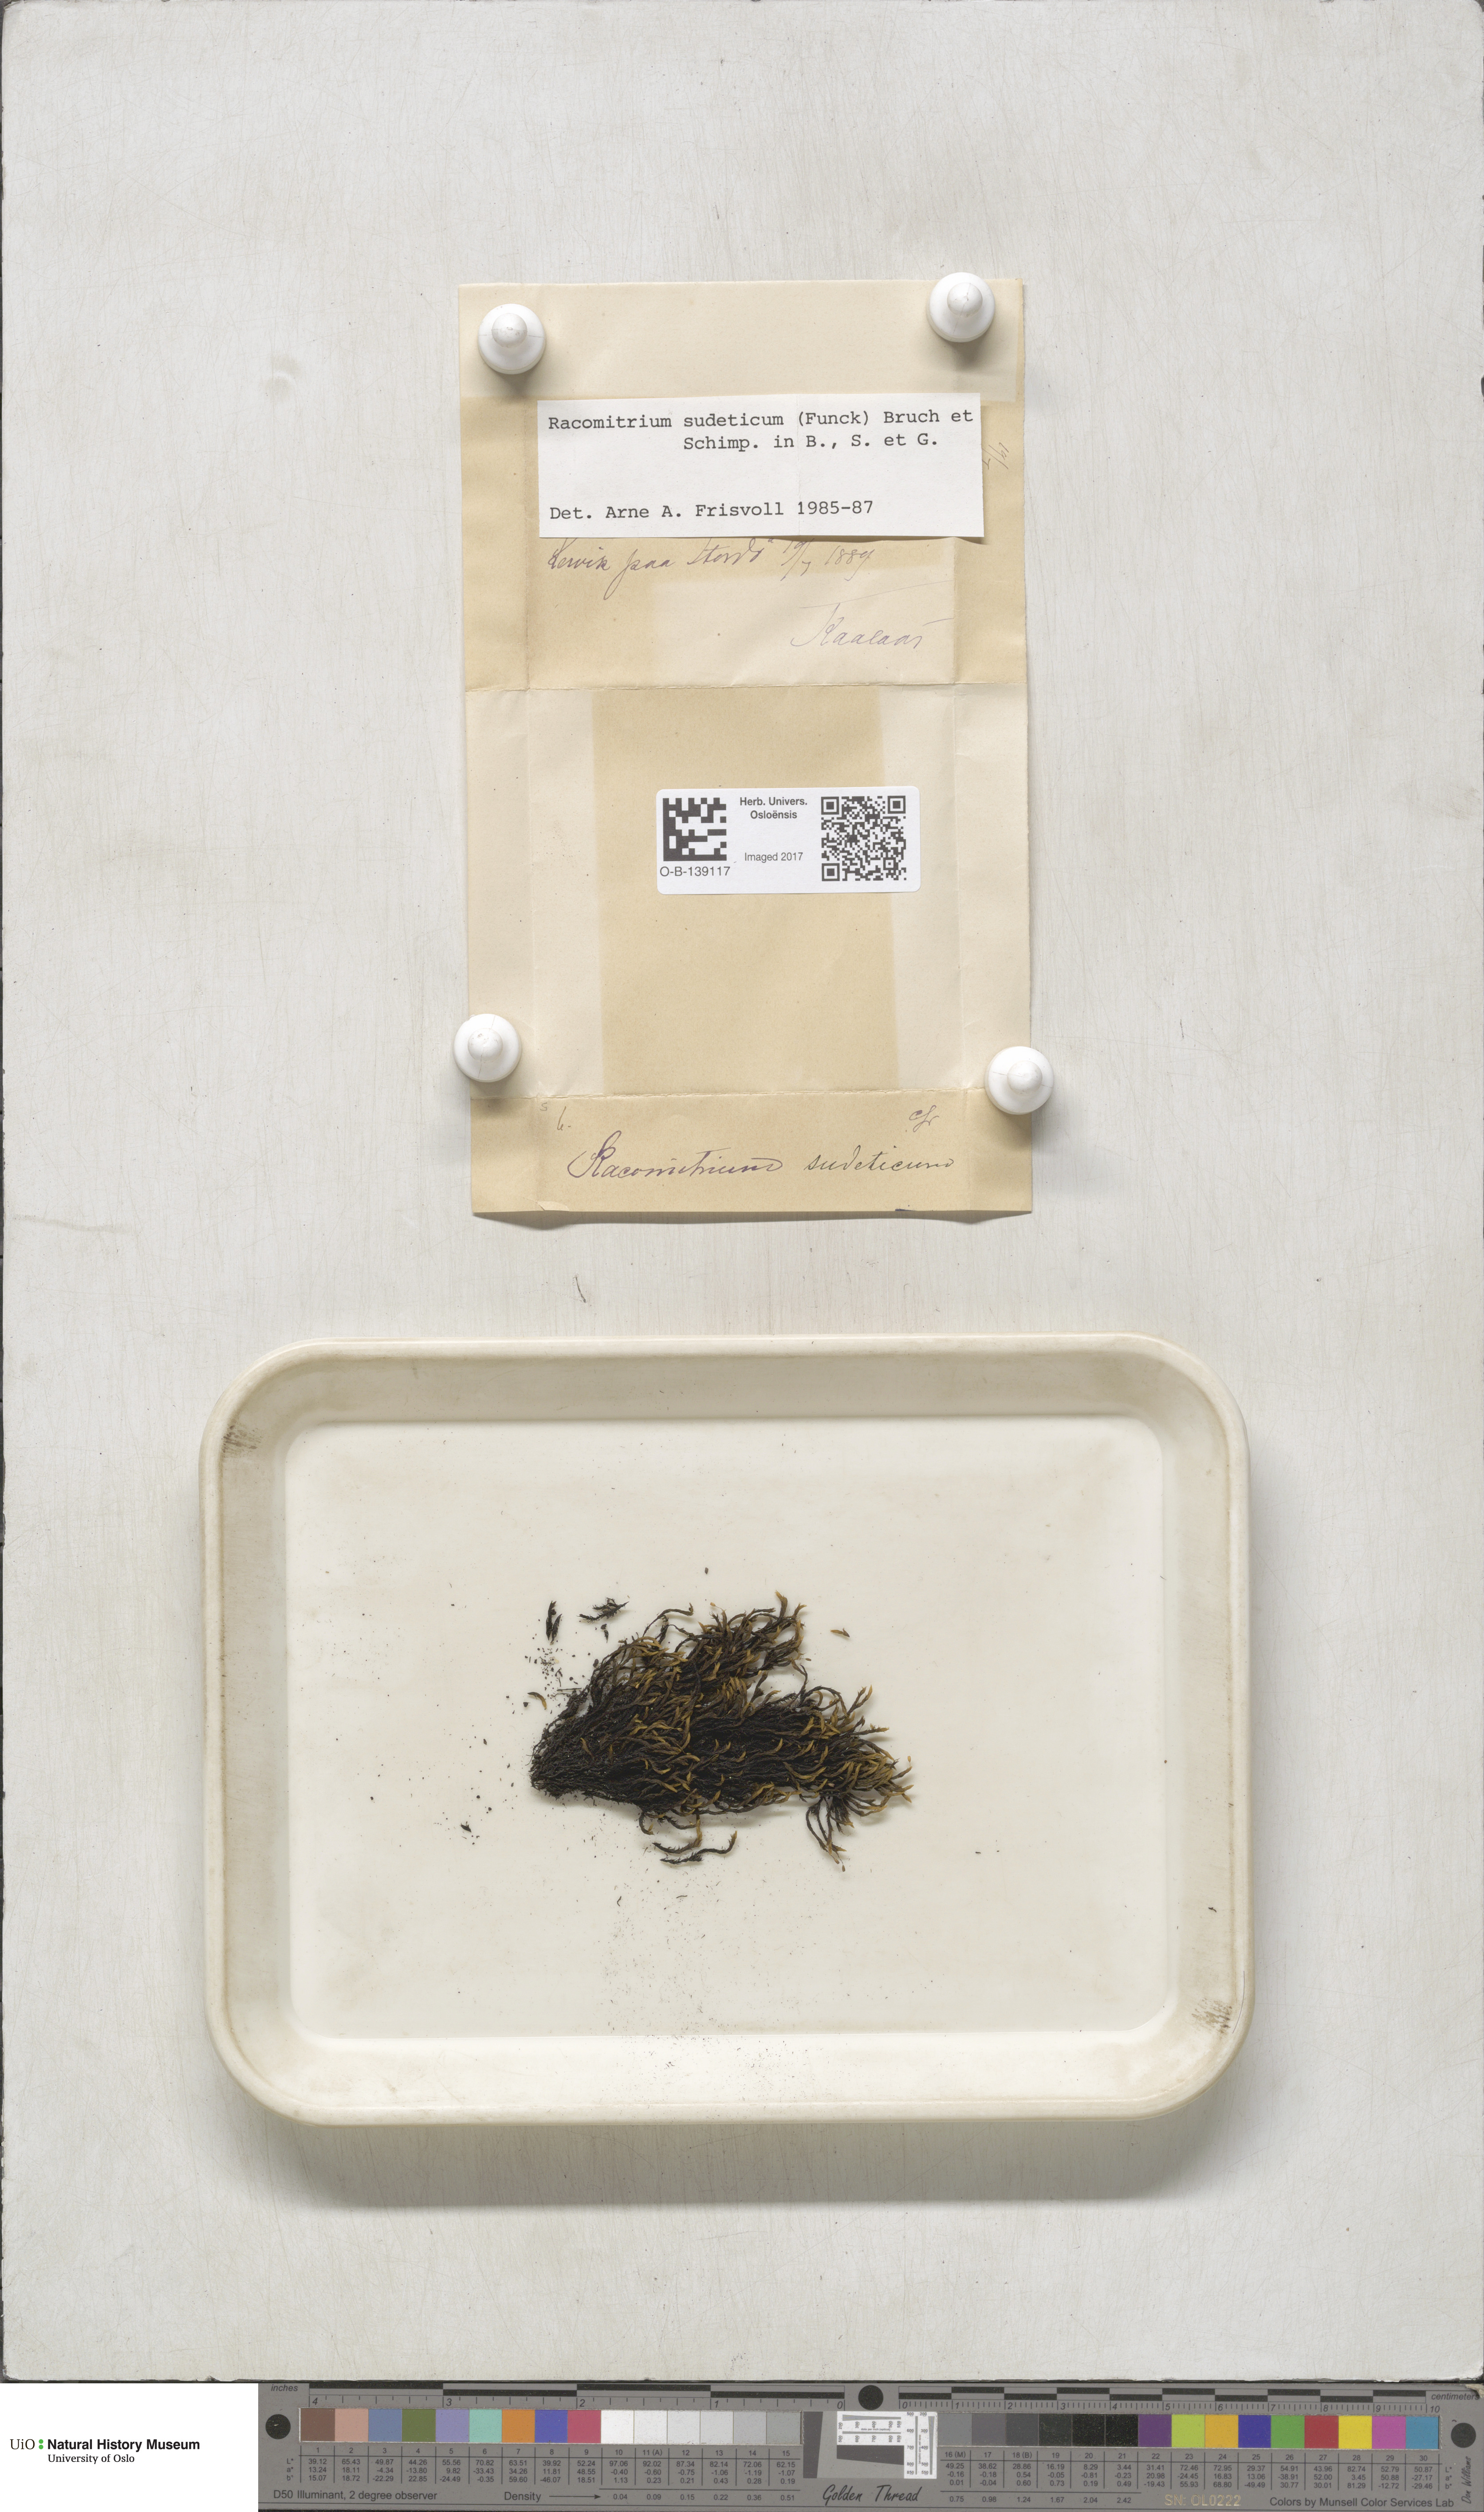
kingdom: Plantae
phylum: Bryophyta
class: Bryopsida
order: Grimmiales
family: Grimmiaceae
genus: Bucklandiella
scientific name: Bucklandiella sudetica
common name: Slender fringe-moss
